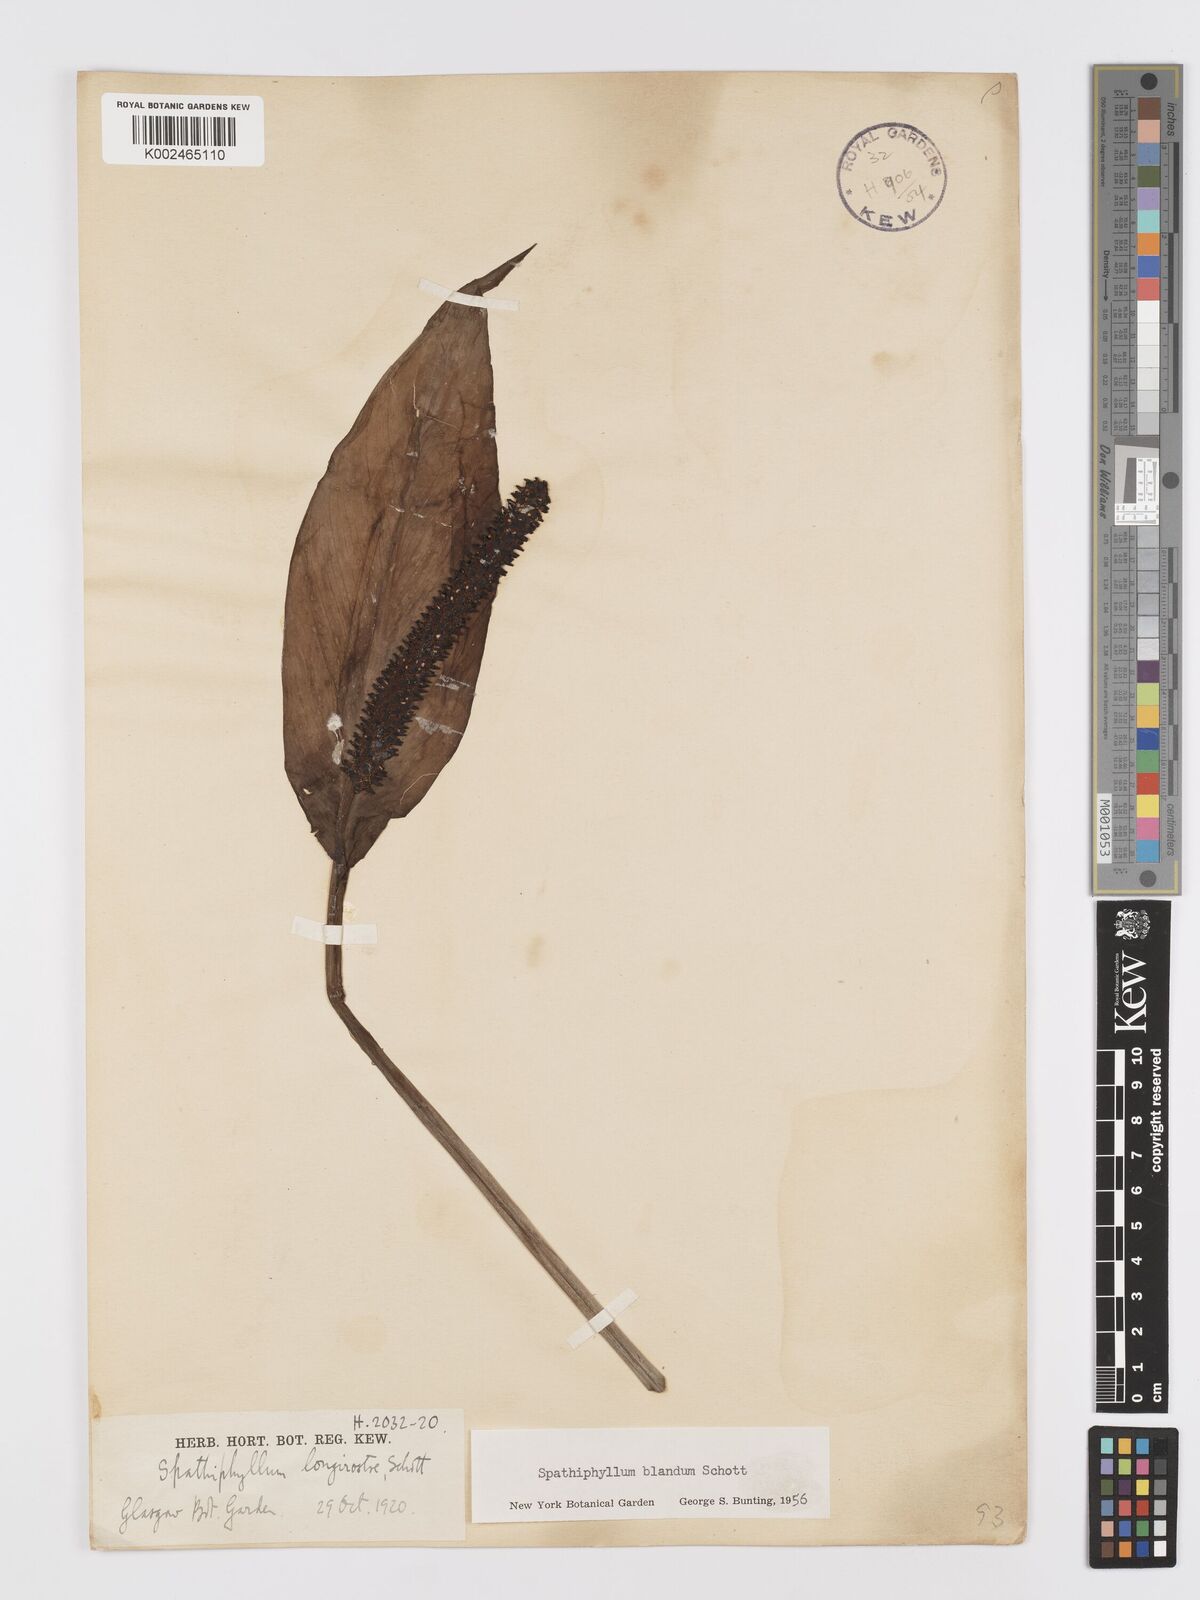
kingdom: Plantae
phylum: Tracheophyta
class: Liliopsida
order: Alismatales
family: Araceae
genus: Spathiphyllum
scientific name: Spathiphyllum blandum
